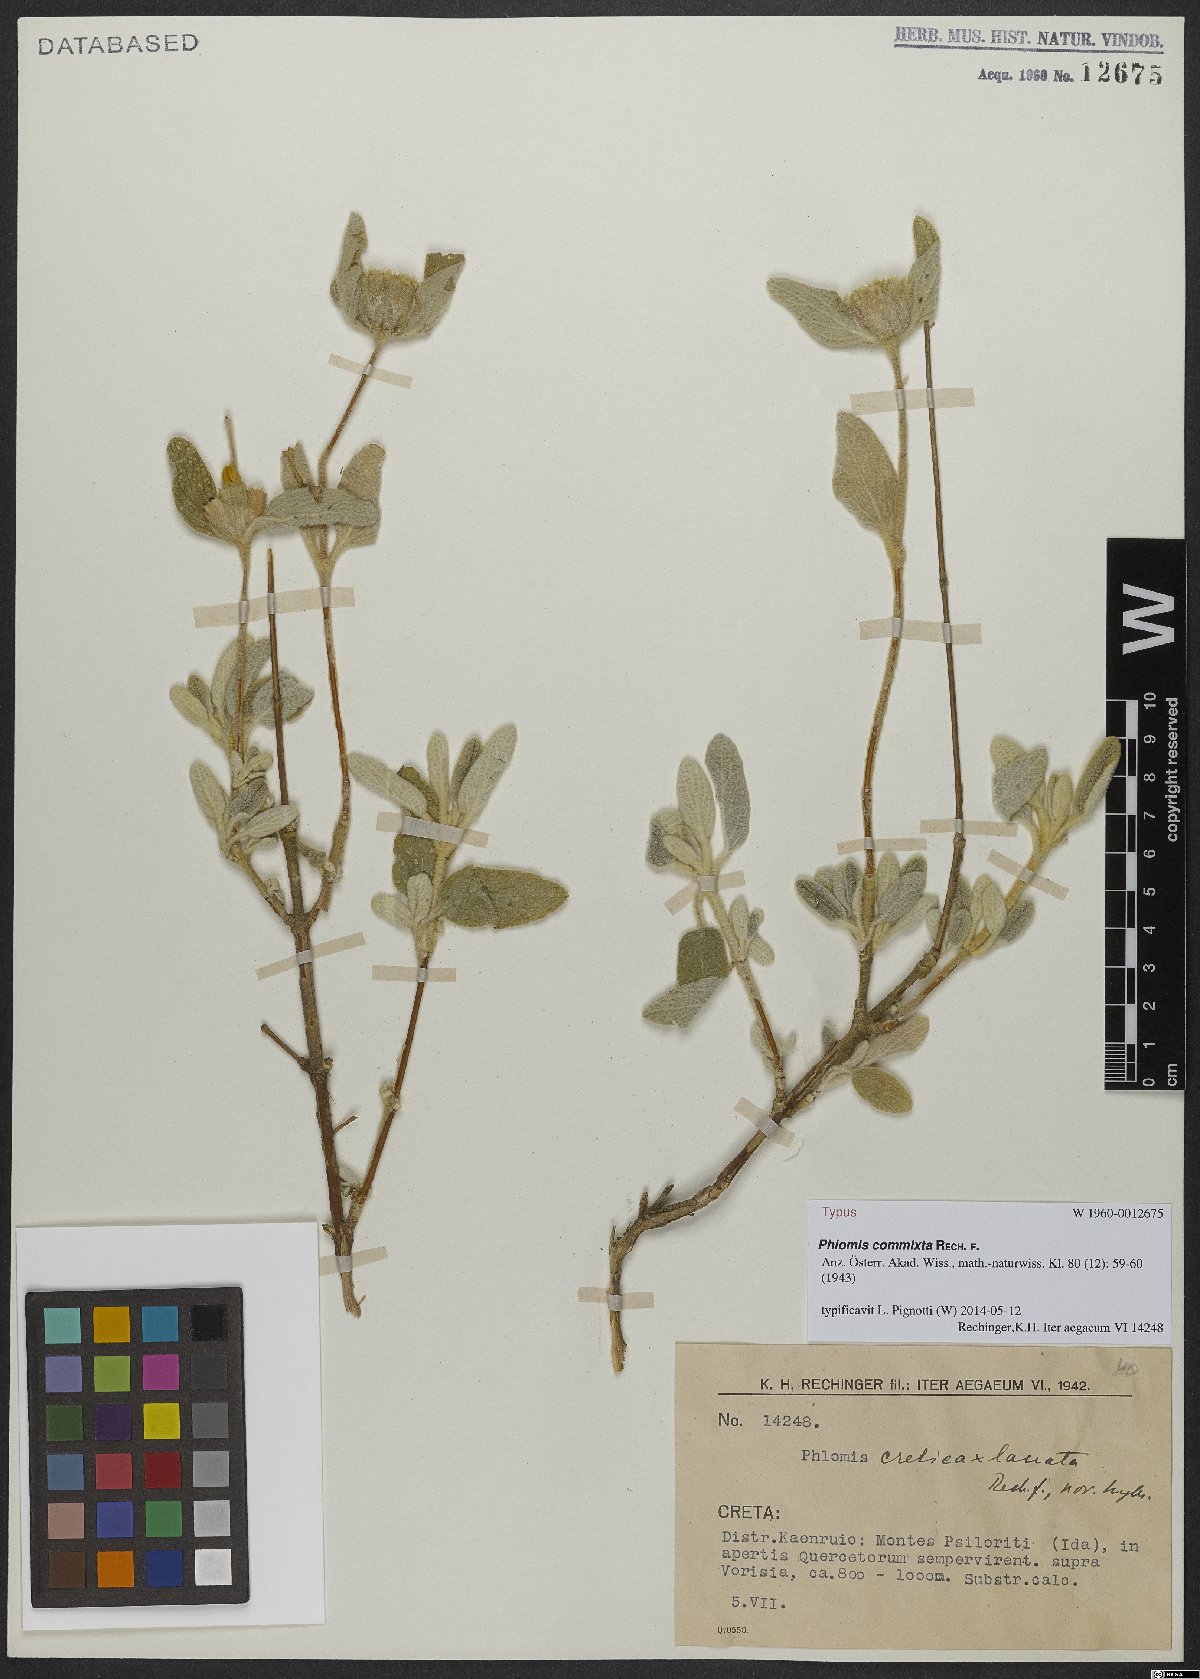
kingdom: Plantae
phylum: Tracheophyta
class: Magnoliopsida
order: Lamiales
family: Lamiaceae
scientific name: Lamiaceae
